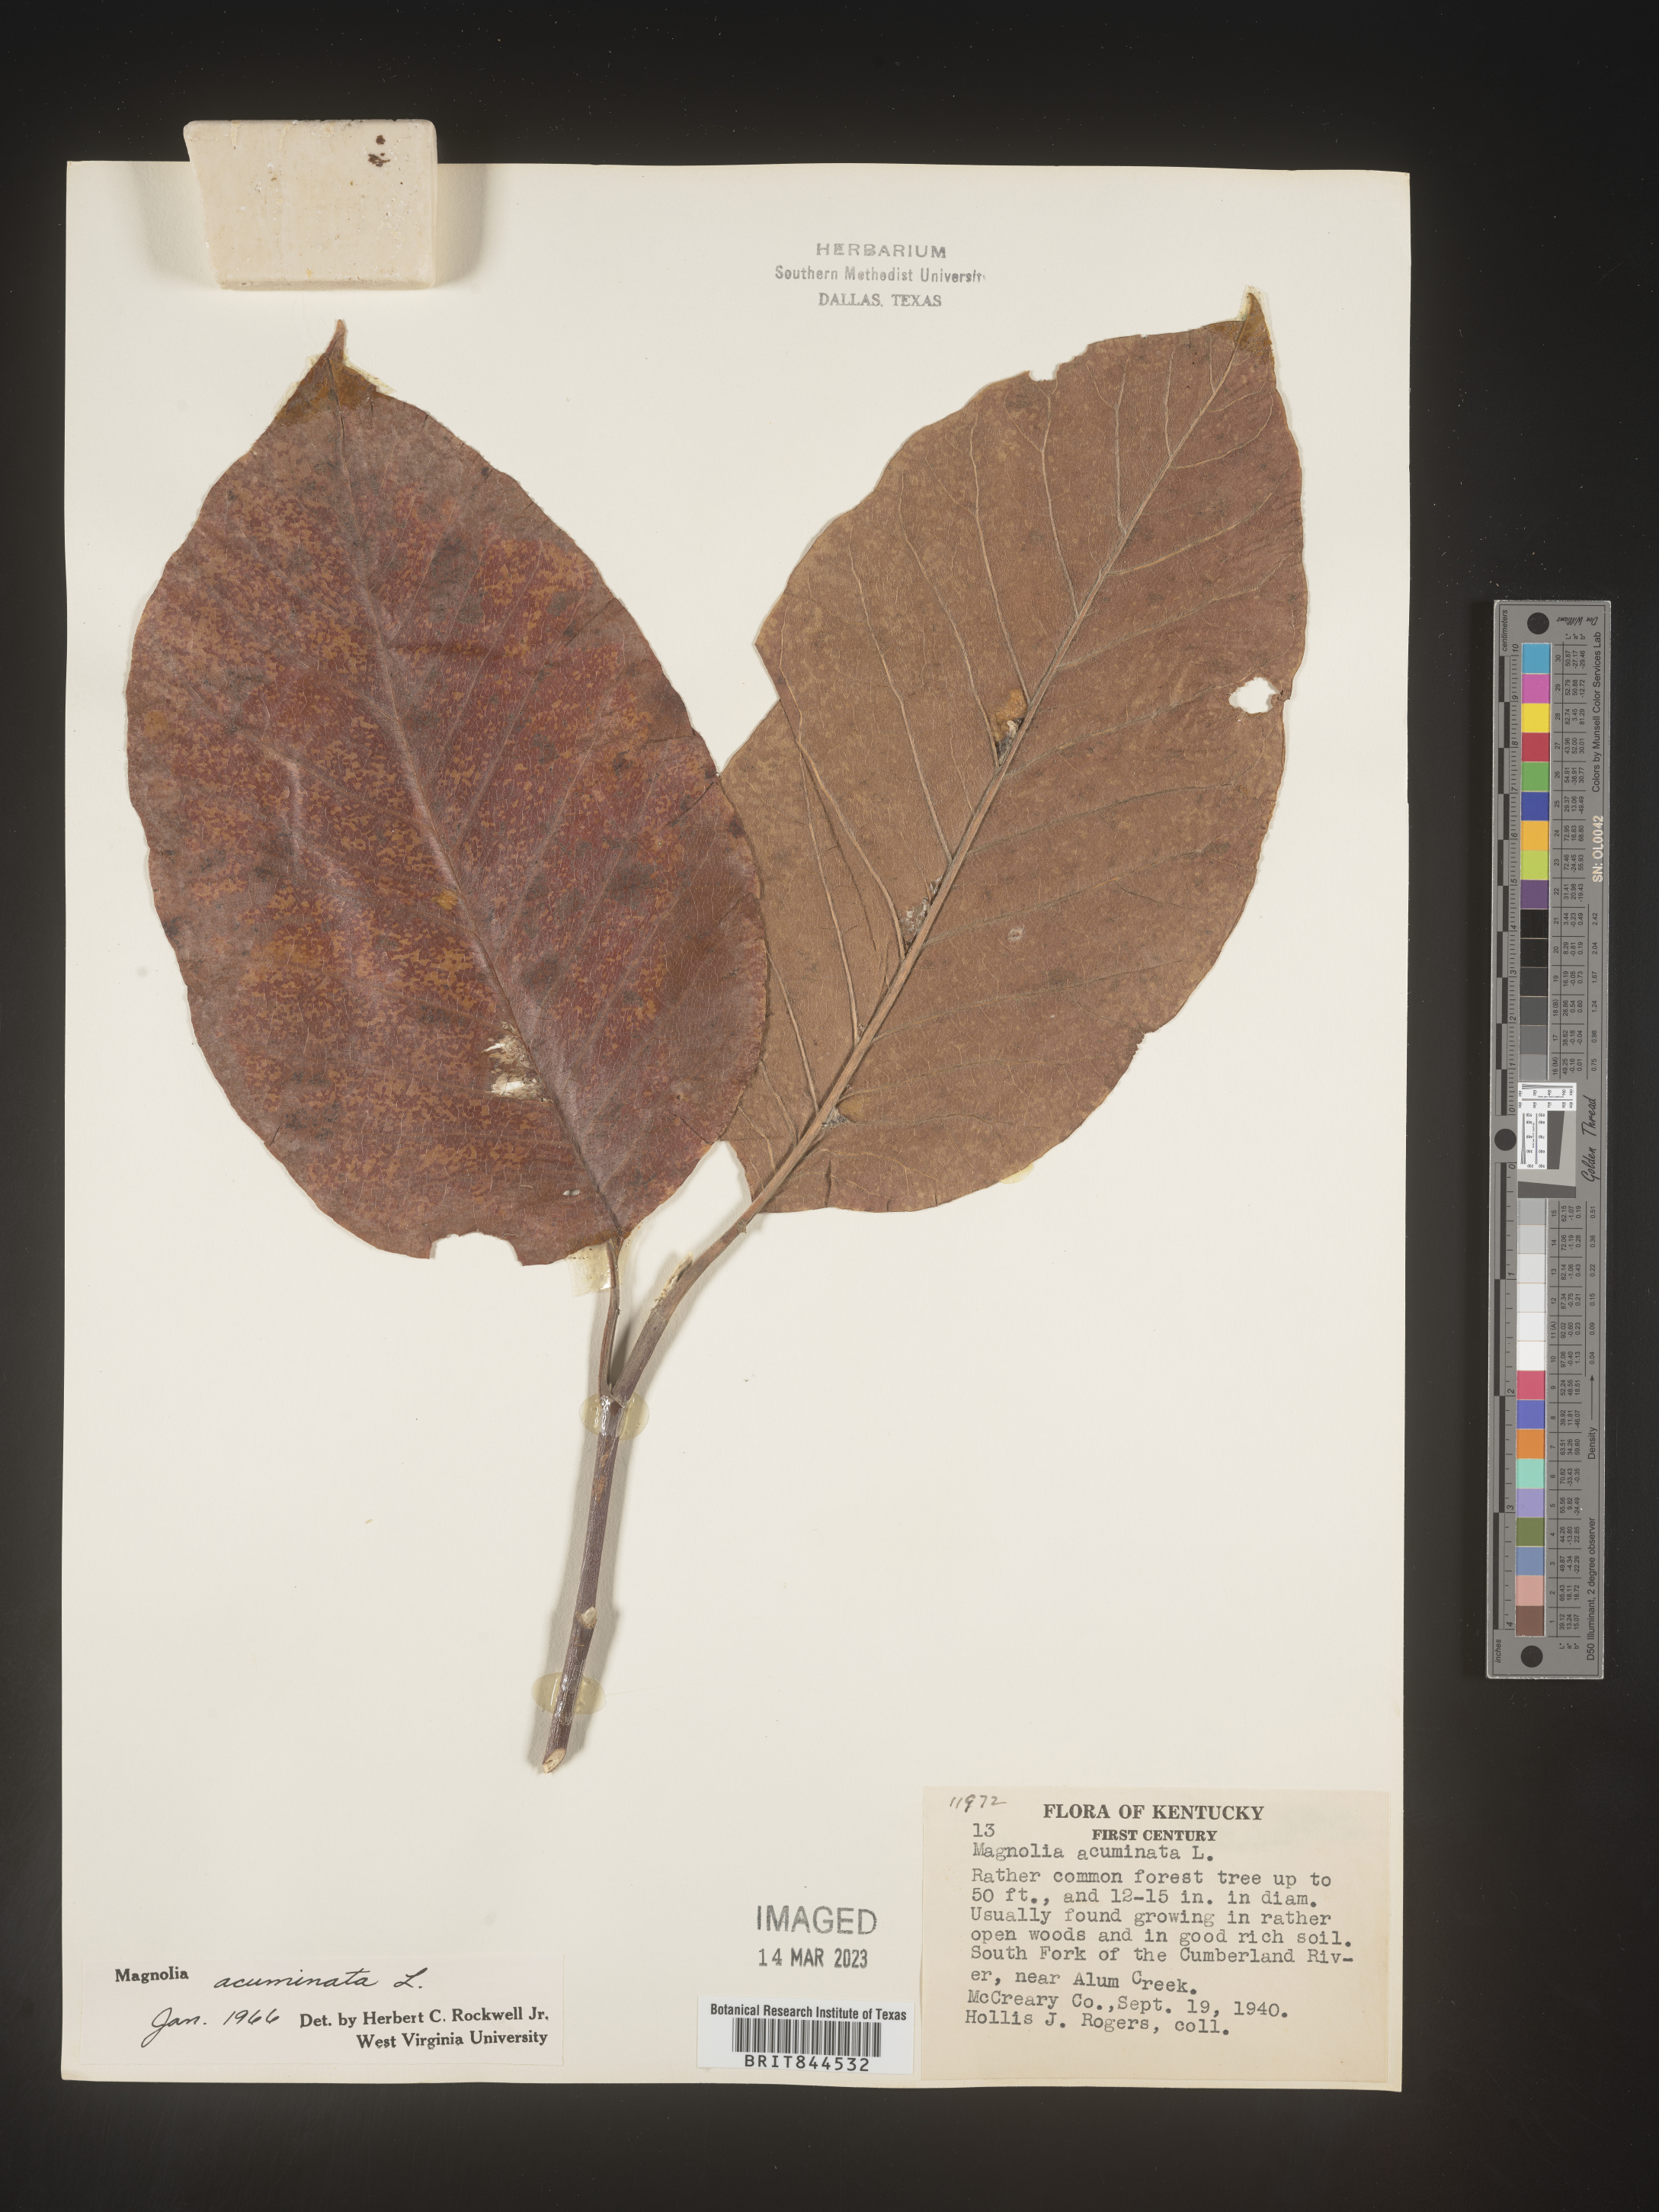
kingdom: Plantae
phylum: Tracheophyta
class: Magnoliopsida
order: Magnoliales
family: Magnoliaceae
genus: Magnolia
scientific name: Magnolia acuminata
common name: Cucumber magnolia
